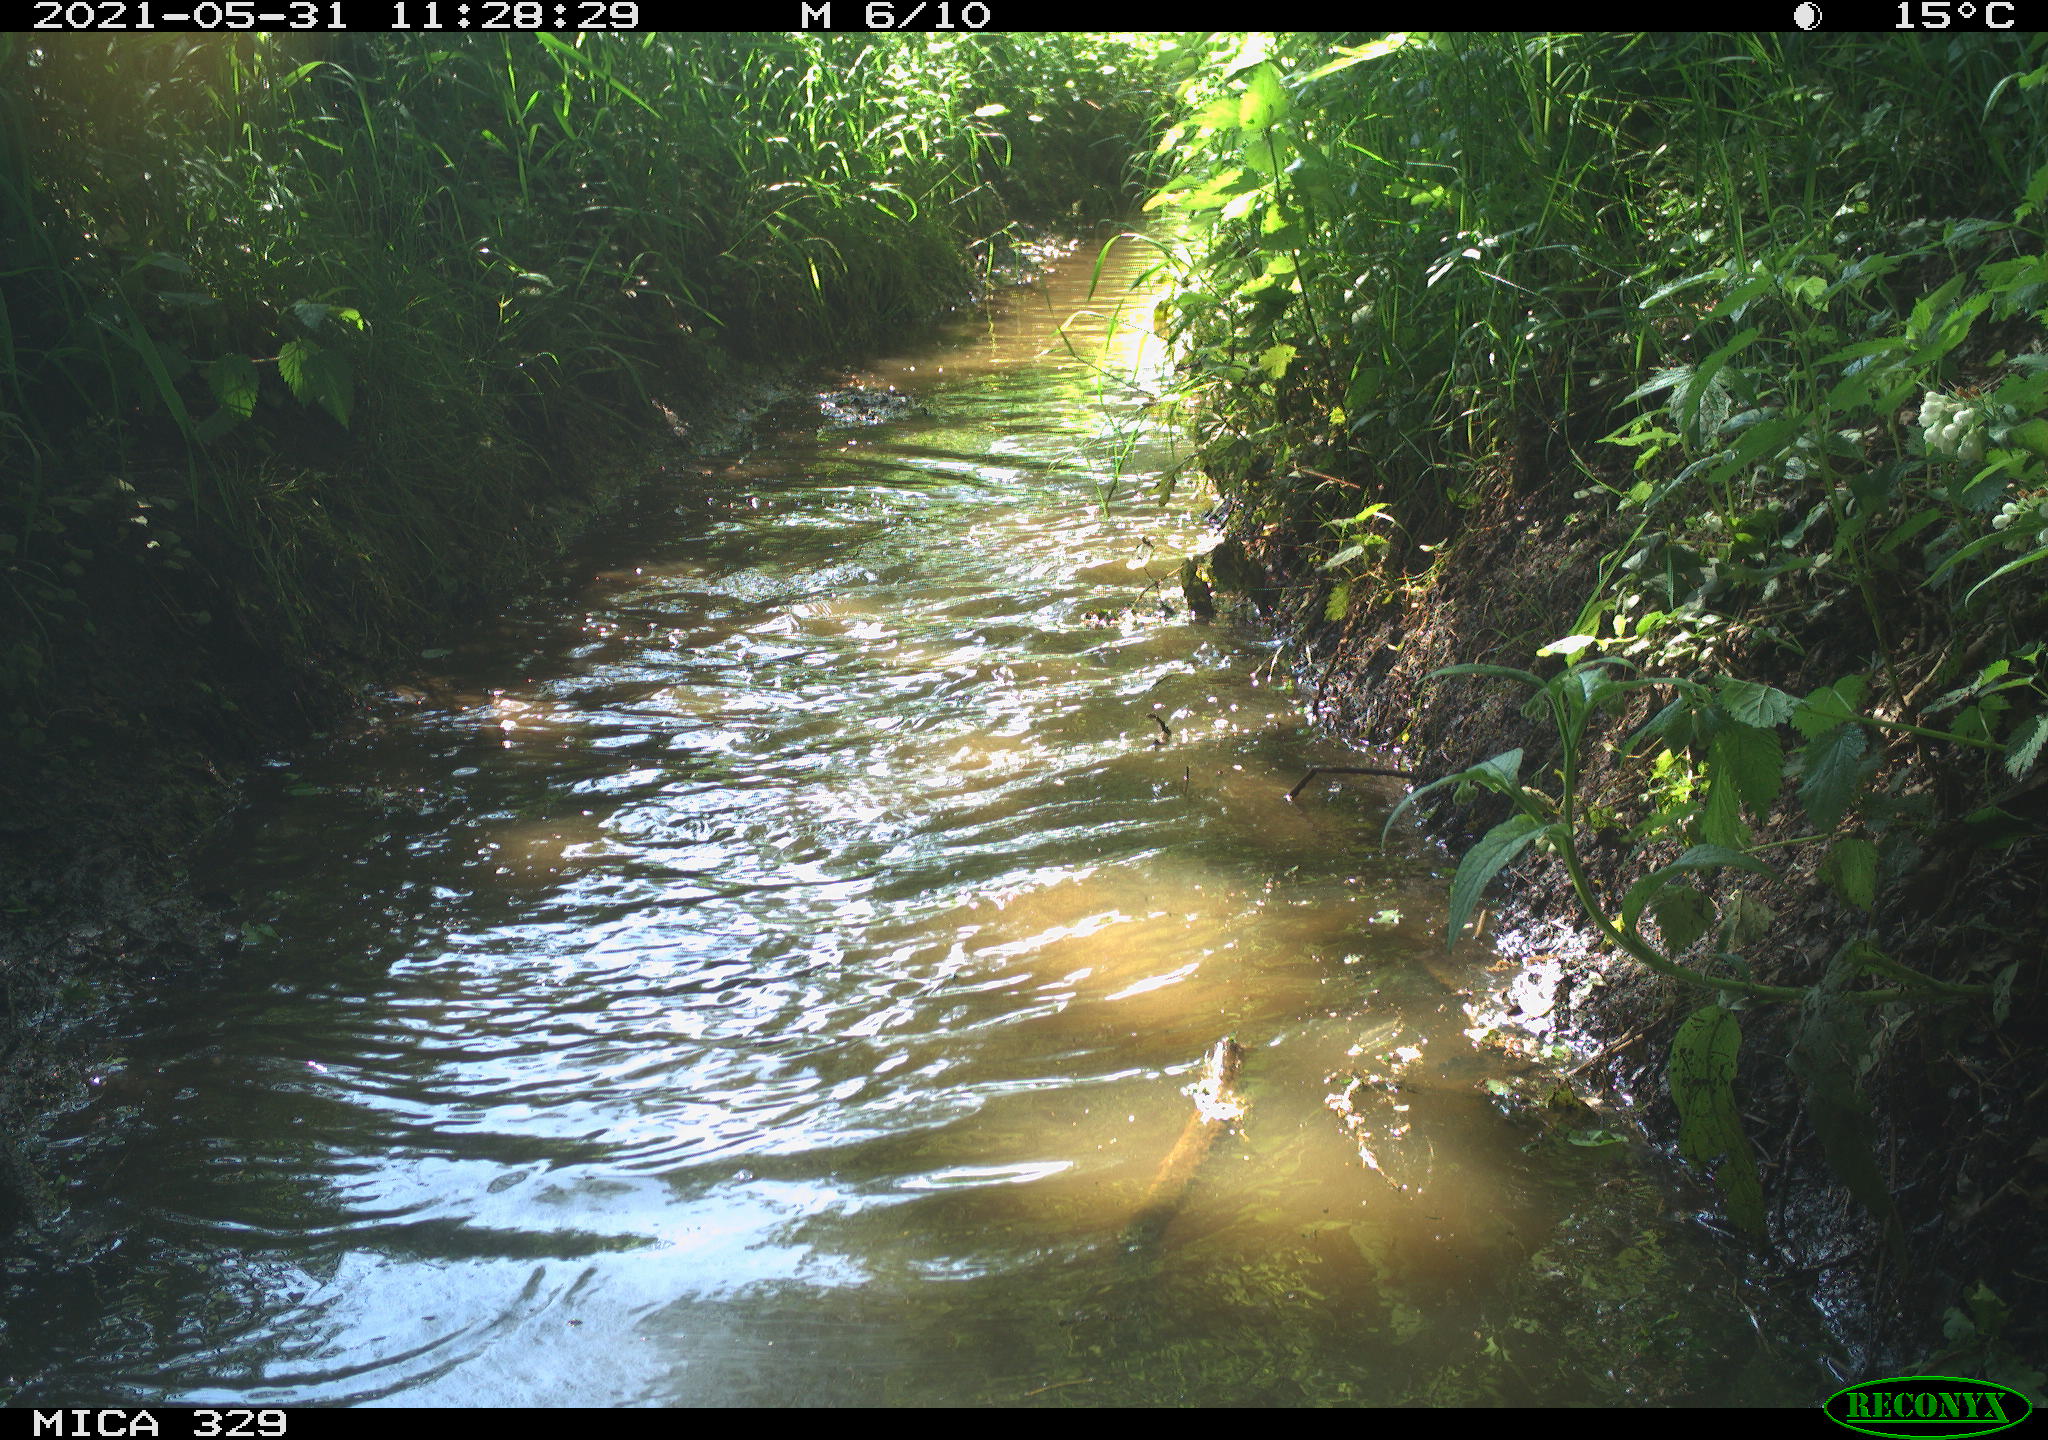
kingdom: Animalia
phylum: Chordata
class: Aves
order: Anseriformes
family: Anatidae
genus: Anas
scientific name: Anas platyrhynchos
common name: Mallard
